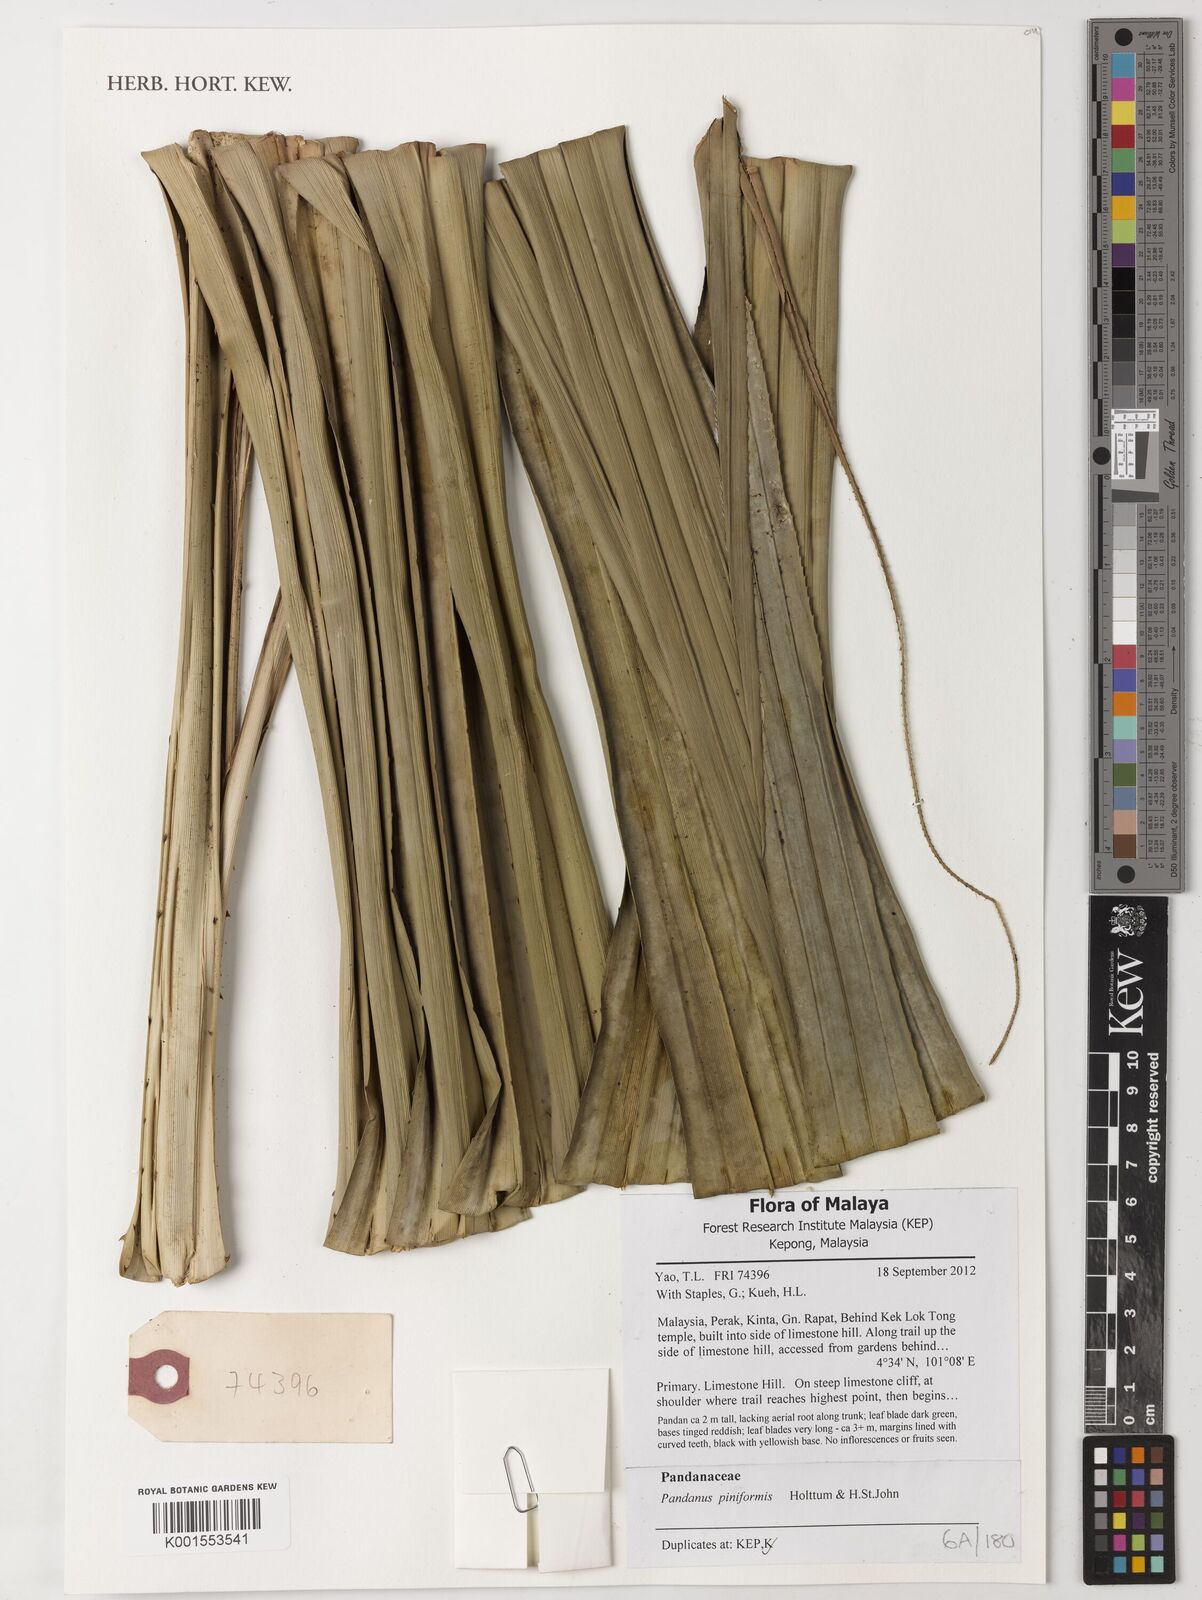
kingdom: Plantae
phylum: Tracheophyta
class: Liliopsida
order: Pandanales
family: Pandanaceae
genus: Pandanus
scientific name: Pandanus piniformis
